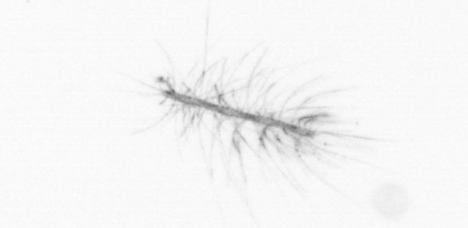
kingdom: Chromista
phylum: Ochrophyta
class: Bacillariophyceae
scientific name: Bacillariophyceae
